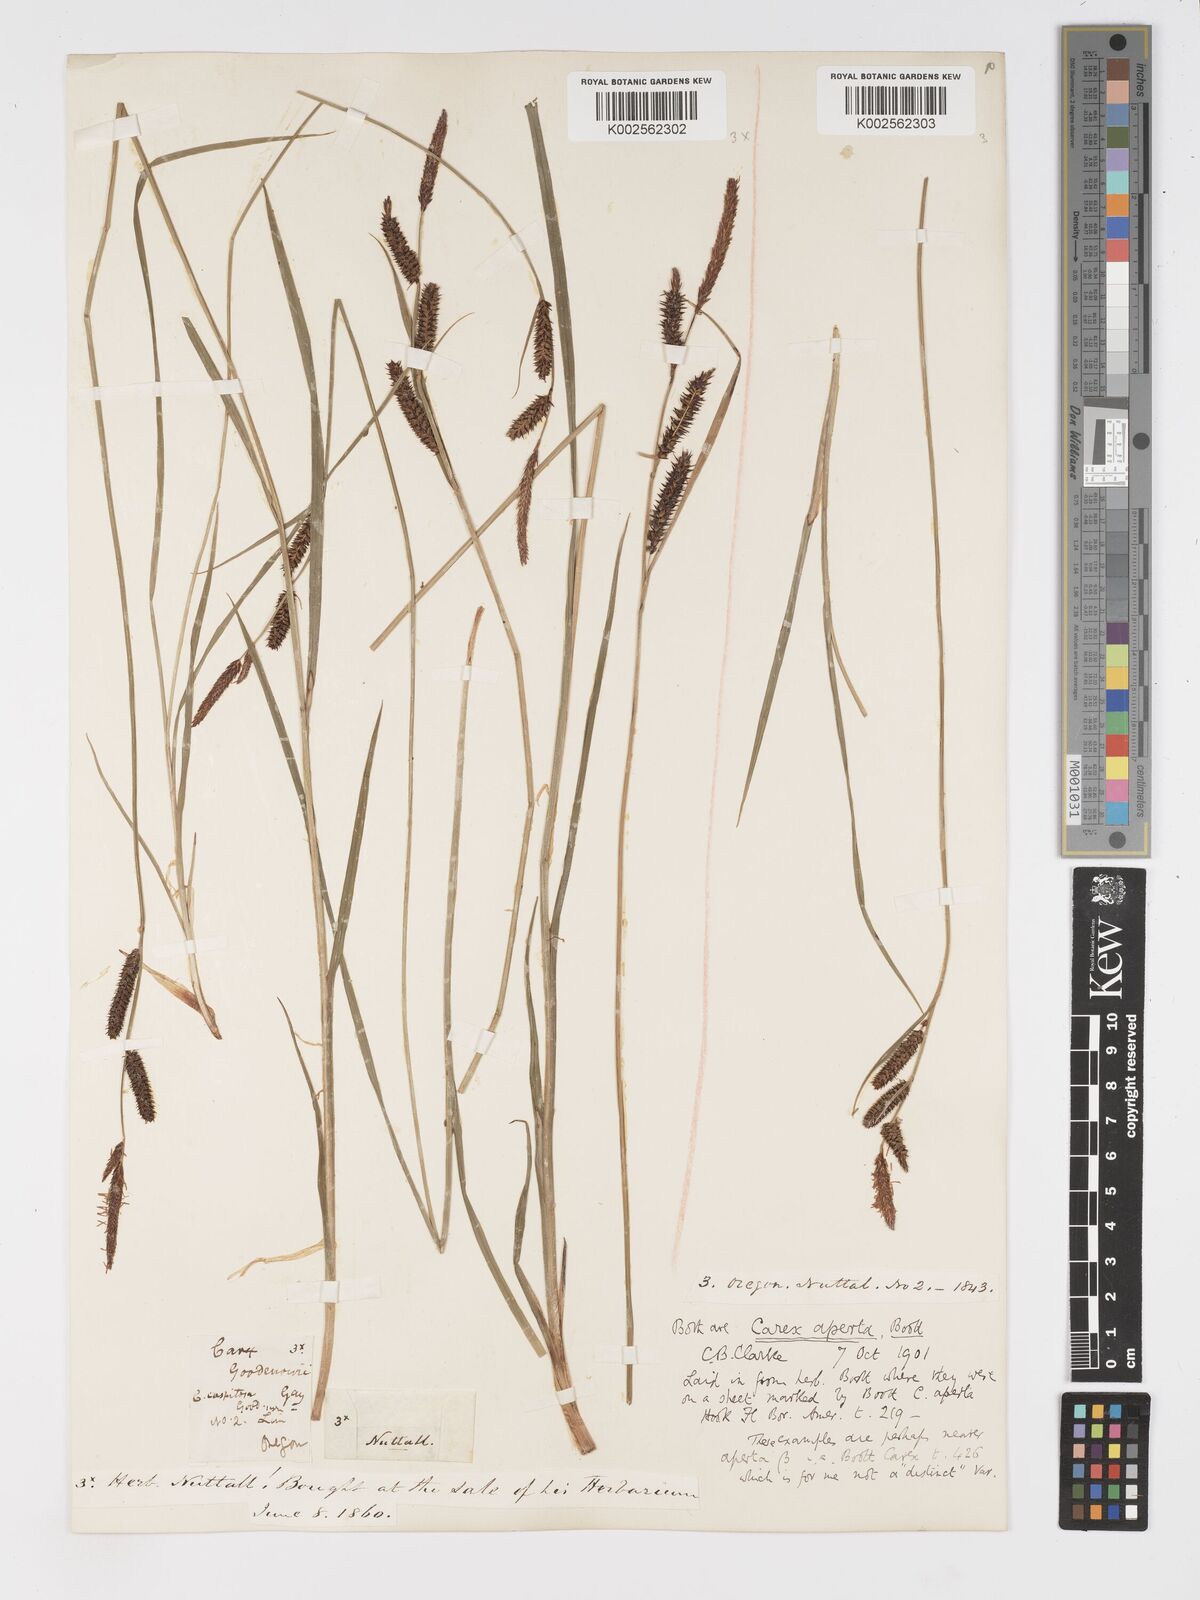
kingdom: Plantae
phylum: Tracheophyta
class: Liliopsida
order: Poales
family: Cyperaceae
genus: Carex
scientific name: Carex aperta
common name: Columbia sedge
